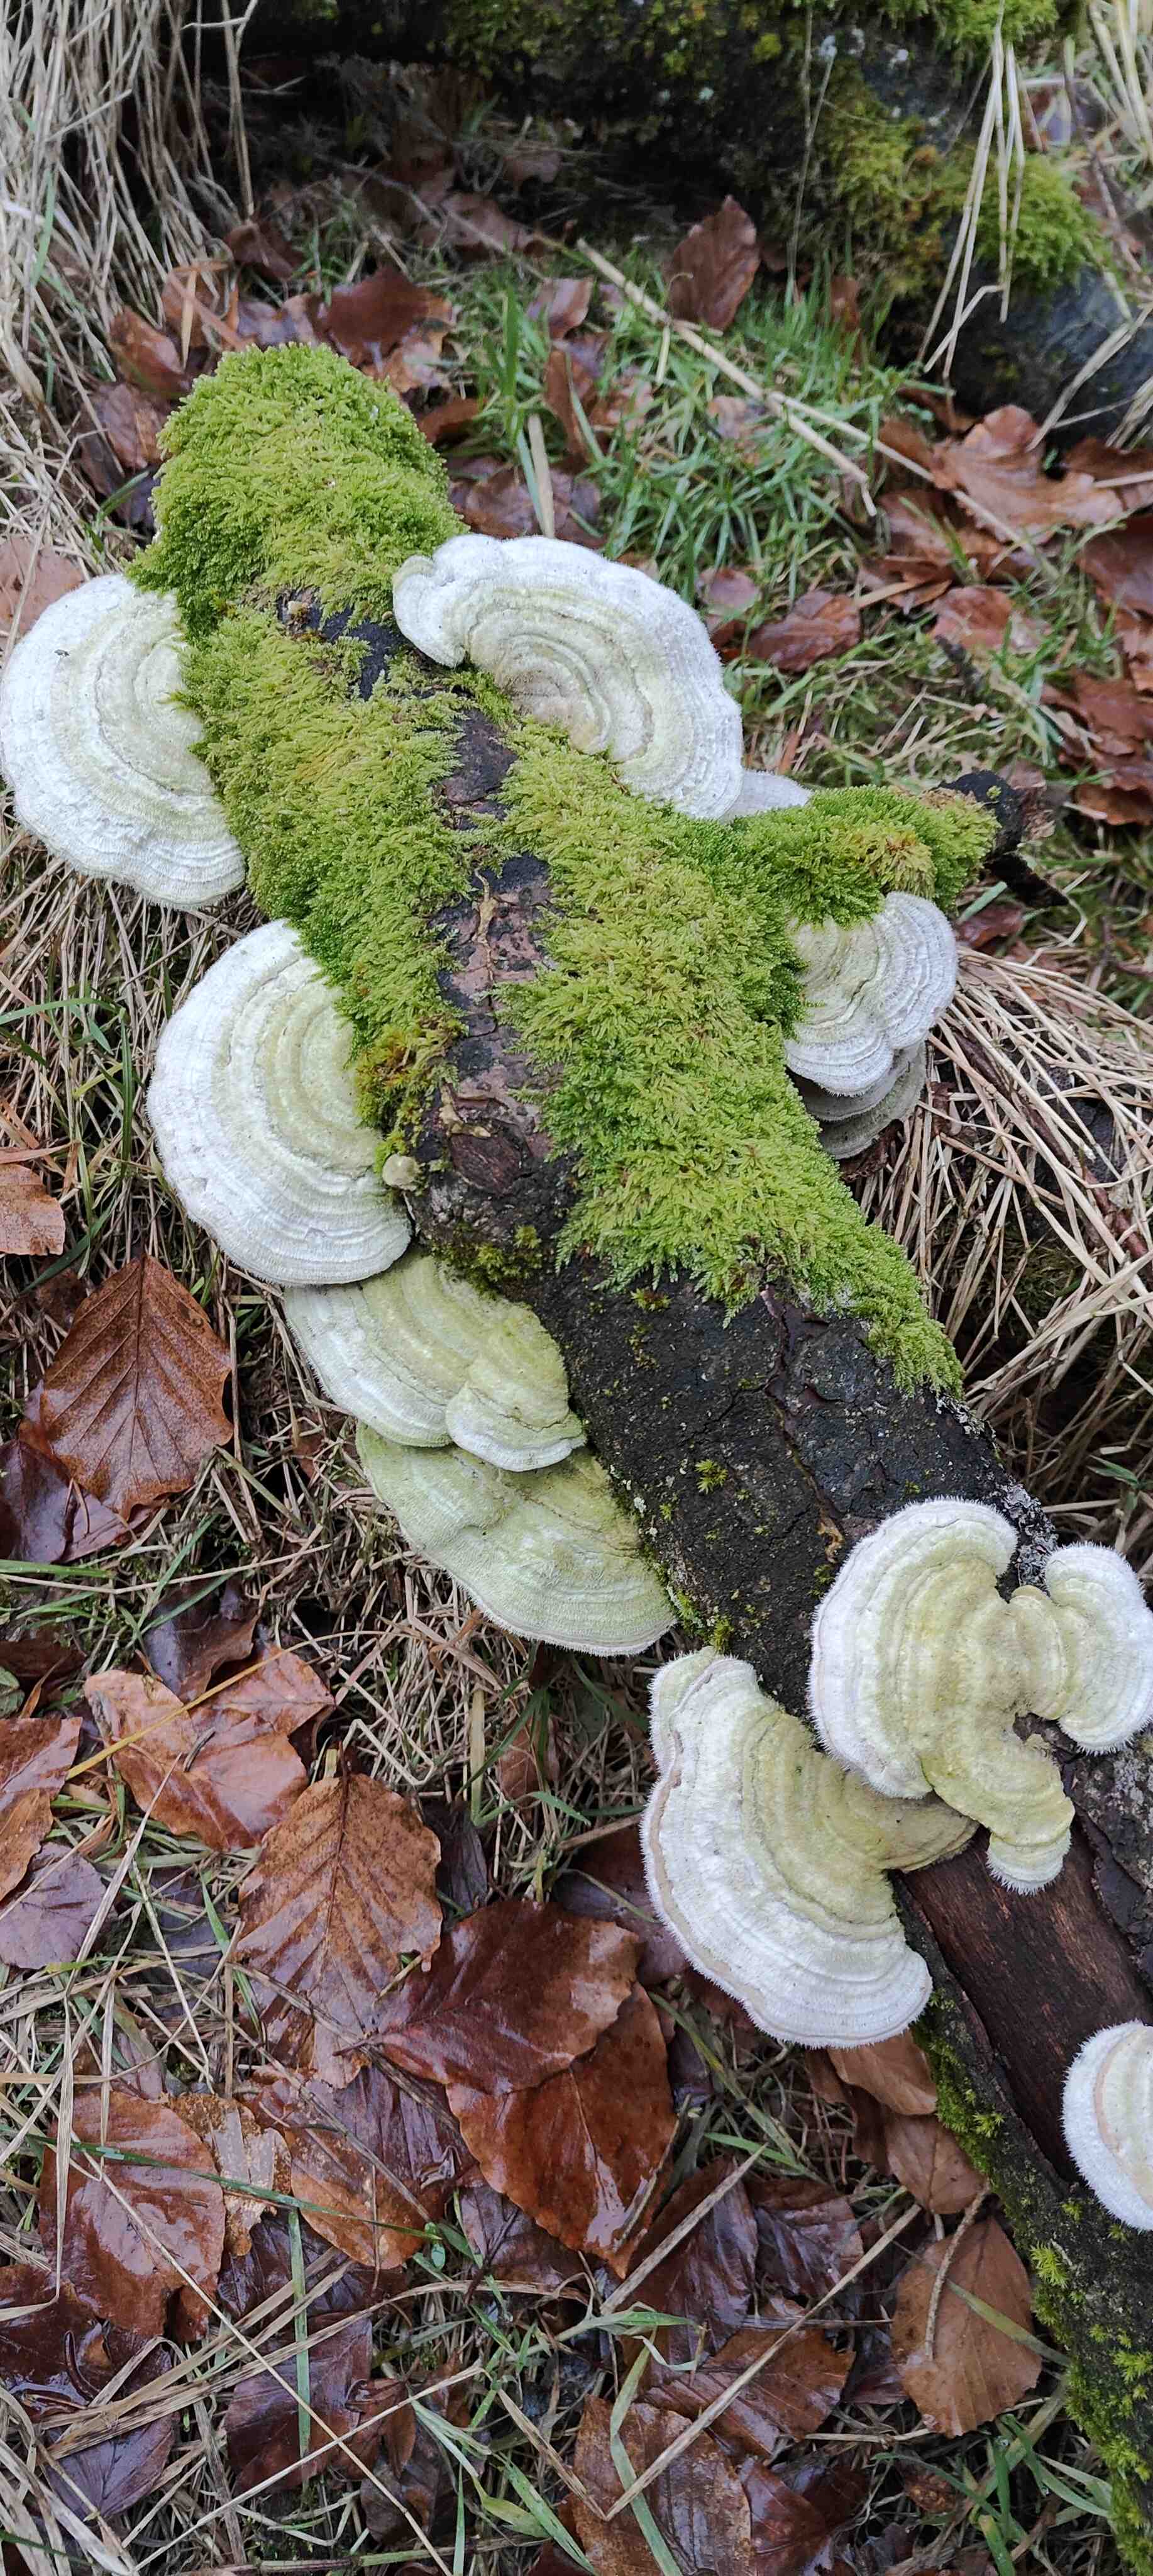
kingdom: Fungi
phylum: Basidiomycota
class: Agaricomycetes
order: Polyporales
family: Polyporaceae
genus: Trametes
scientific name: Trametes hirsuta
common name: håret læderporesvamp
